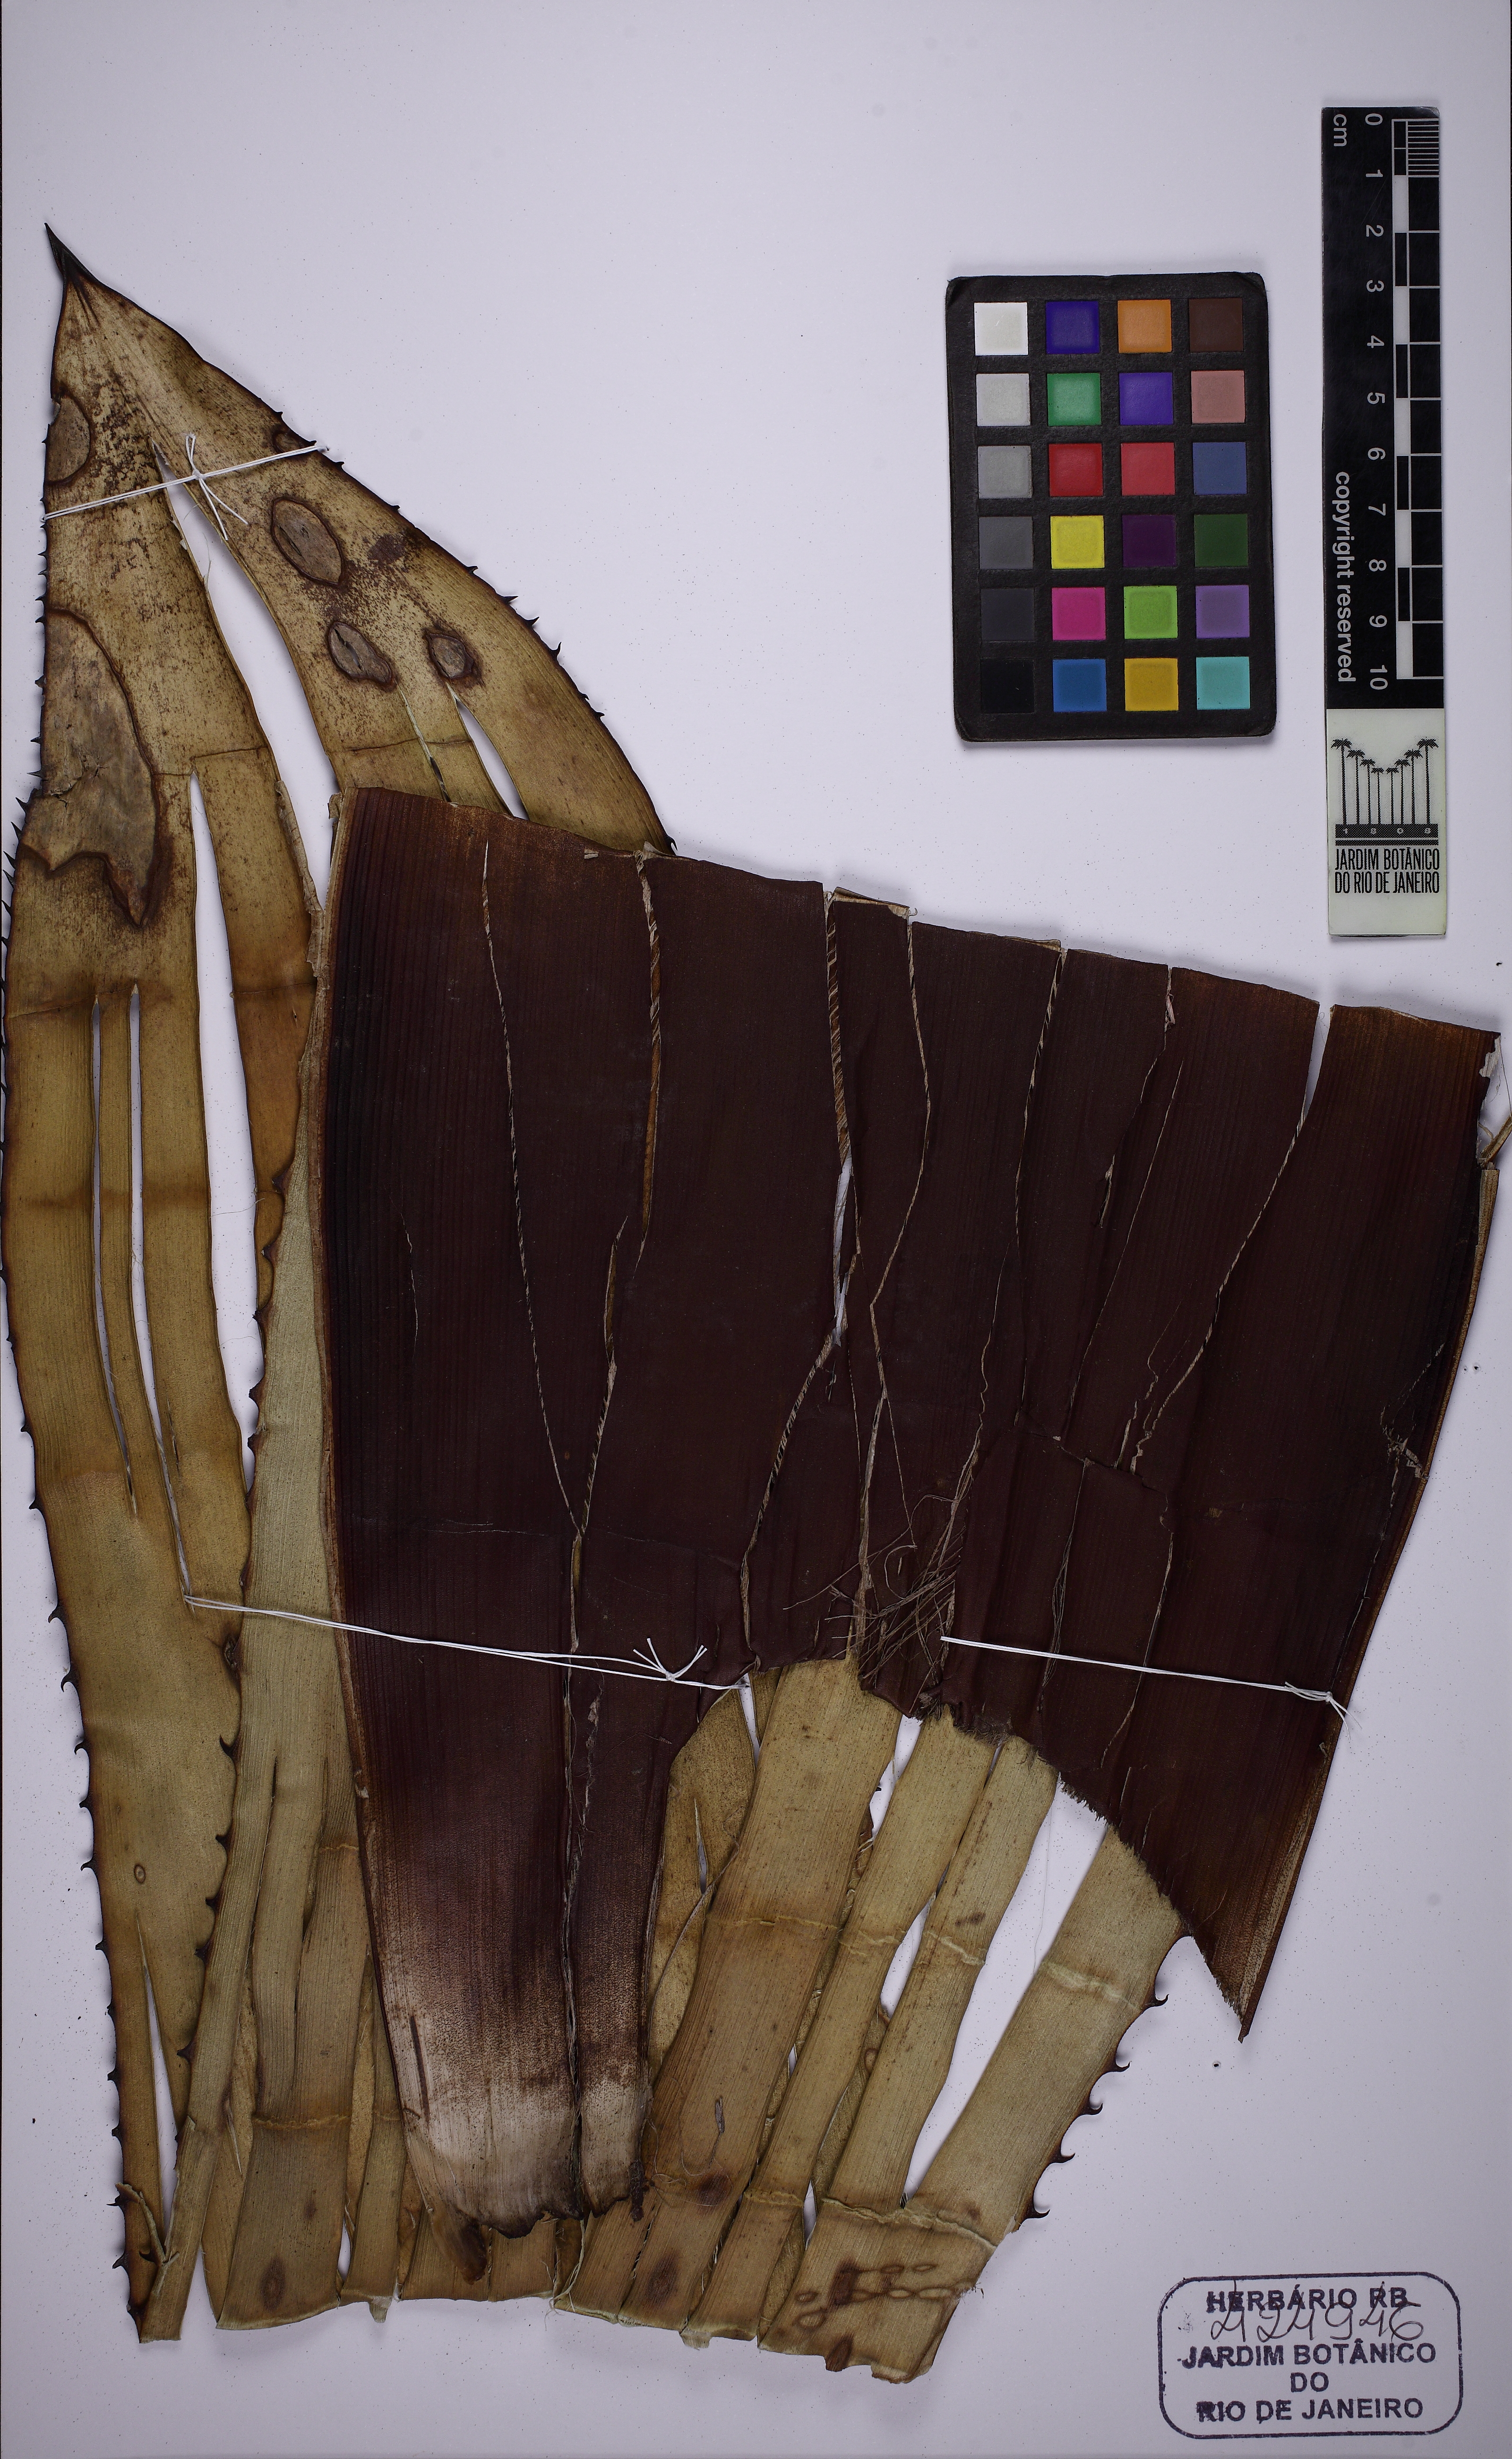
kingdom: Plantae
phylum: Tracheophyta
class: Liliopsida
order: Poales
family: Bromeliaceae
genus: Hohenbergia
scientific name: Hohenbergia ridleyi
